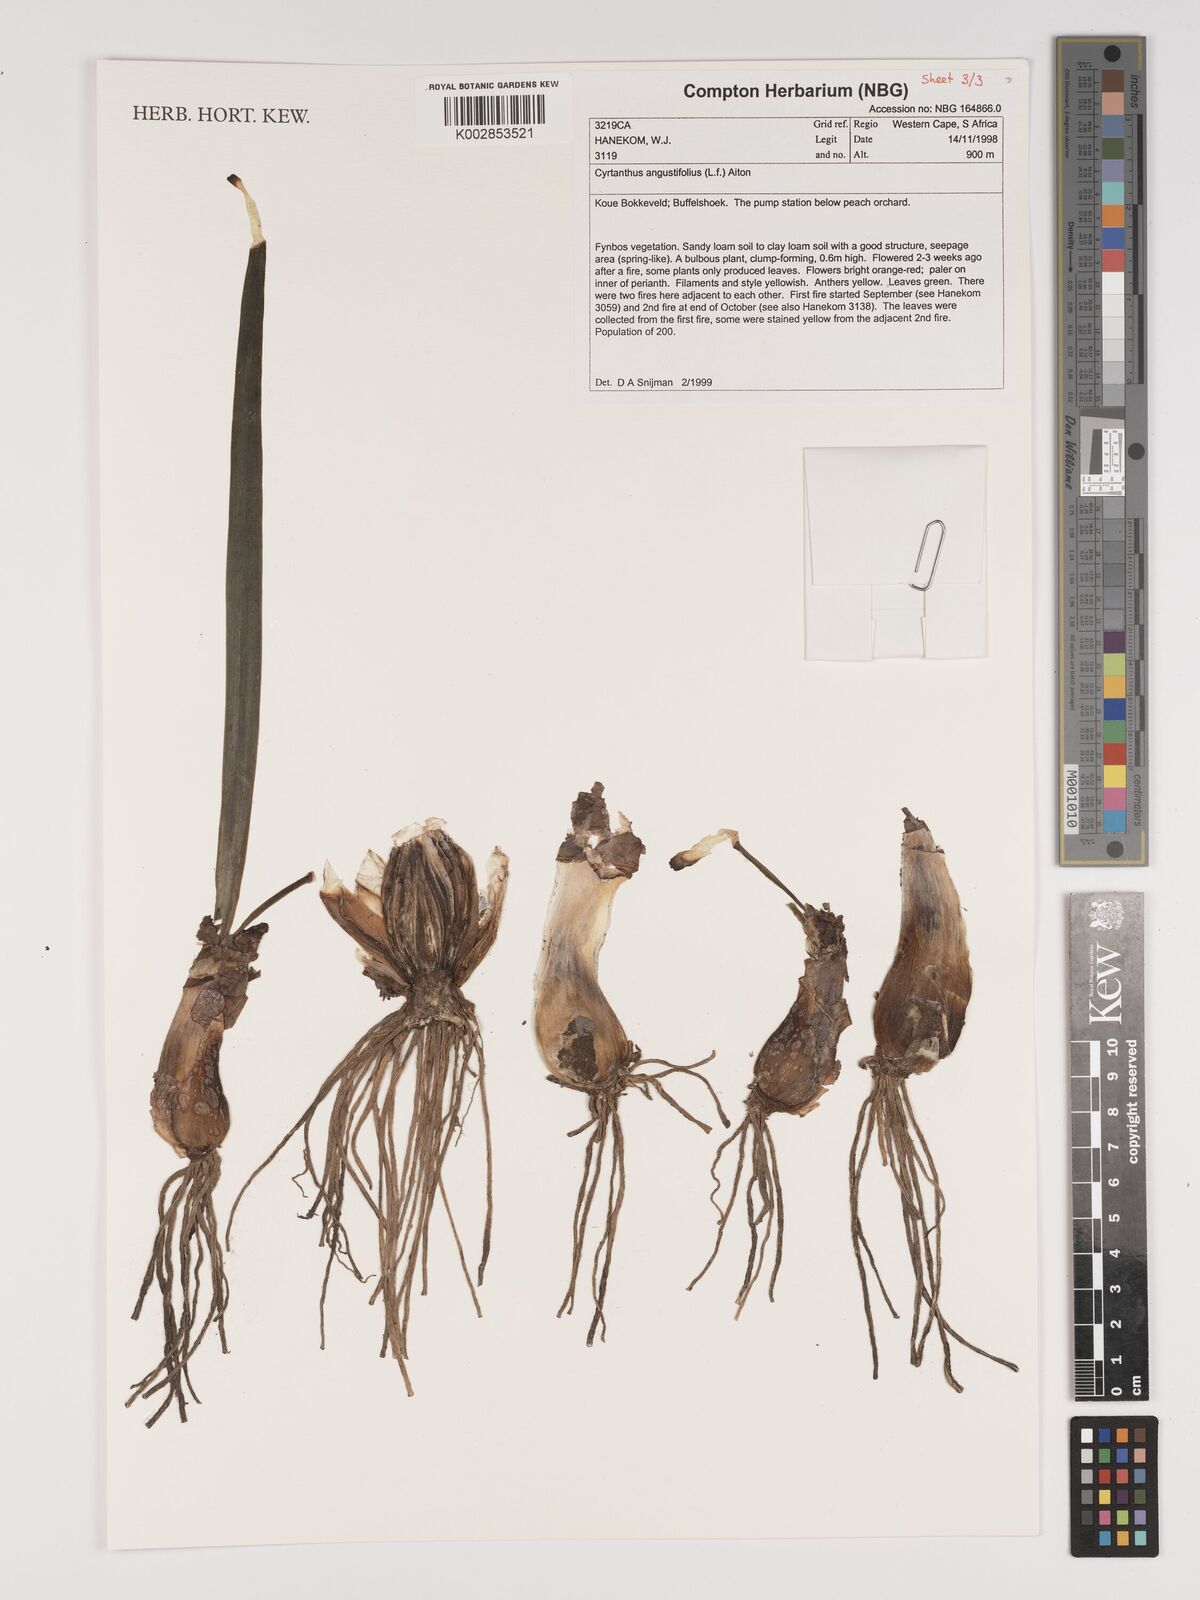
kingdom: Plantae
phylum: Tracheophyta
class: Liliopsida
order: Asparagales
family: Amaryllidaceae
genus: Cyrtanthus
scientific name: Cyrtanthus angustifolius
